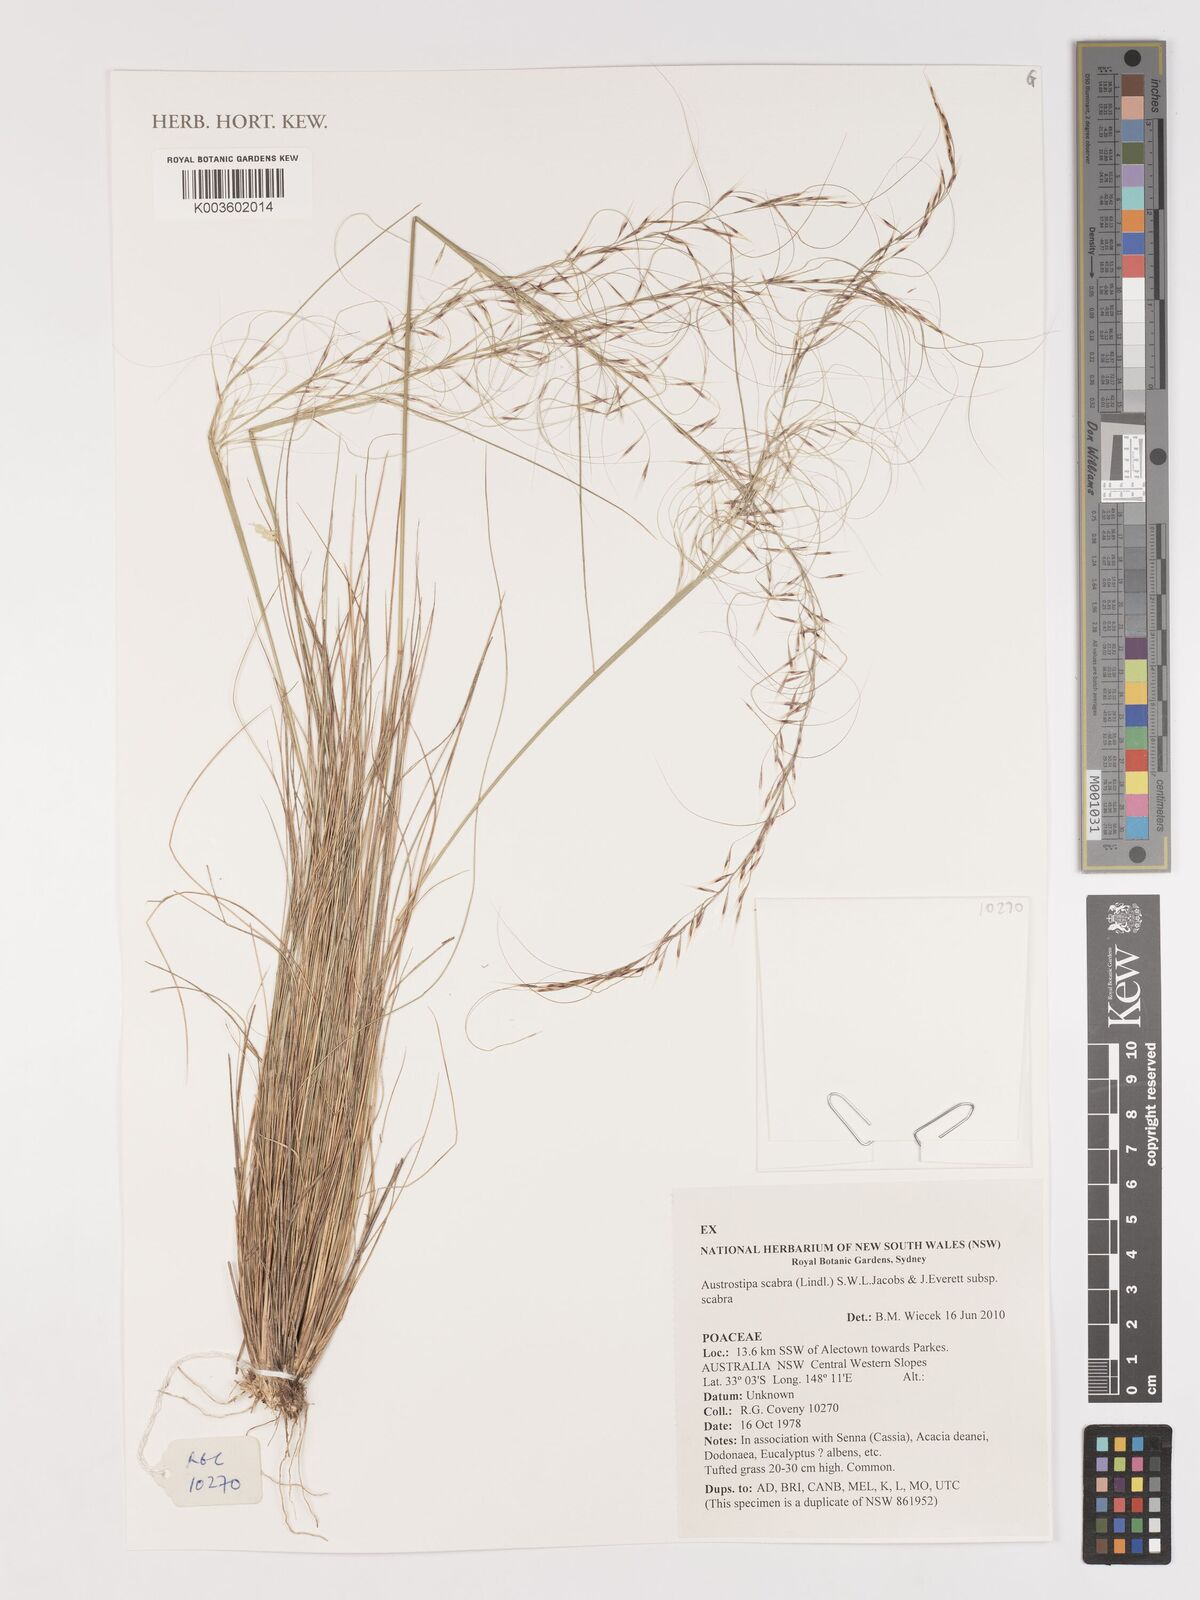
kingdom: Plantae
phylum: Tracheophyta
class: Liliopsida
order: Poales
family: Poaceae
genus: Austrostipa
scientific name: Austrostipa scabra
